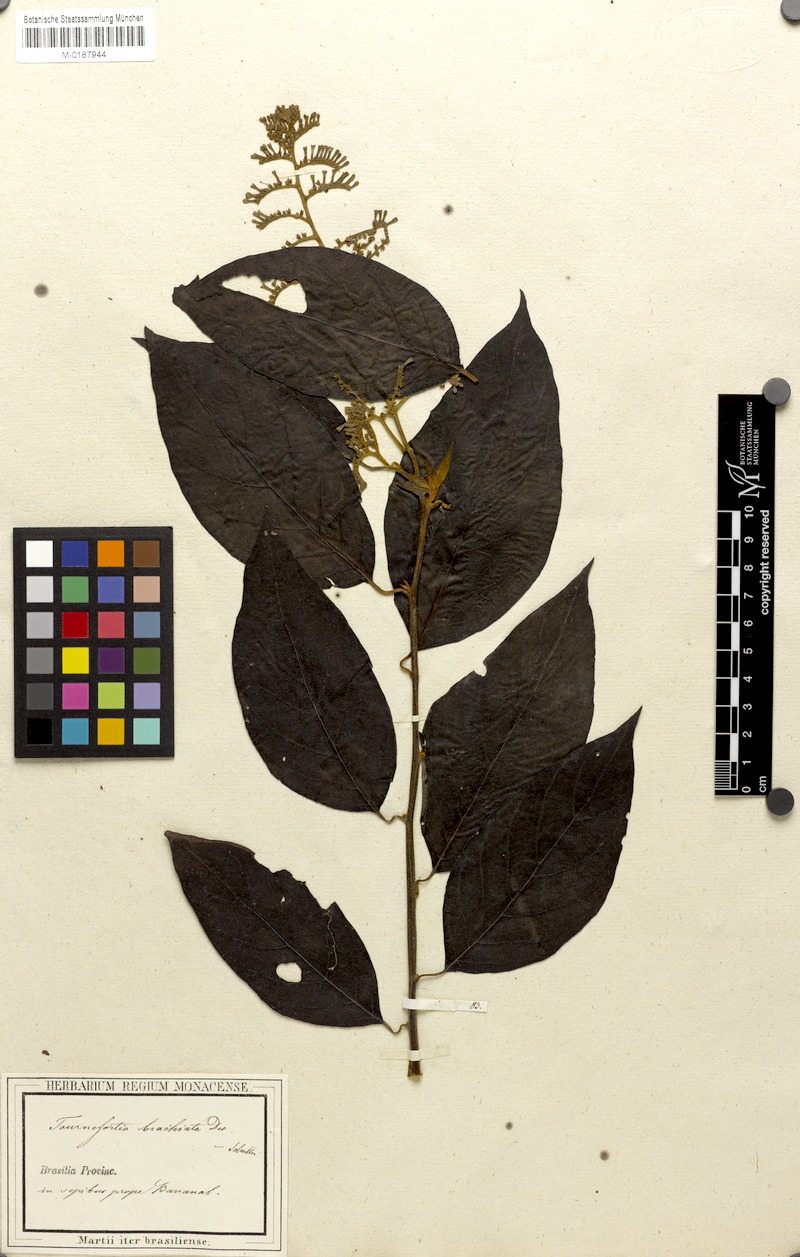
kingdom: Plantae
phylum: Tracheophyta
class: Magnoliopsida
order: Boraginales
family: Heliotropiaceae
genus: Myriopus
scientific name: Myriopus paniculatus
